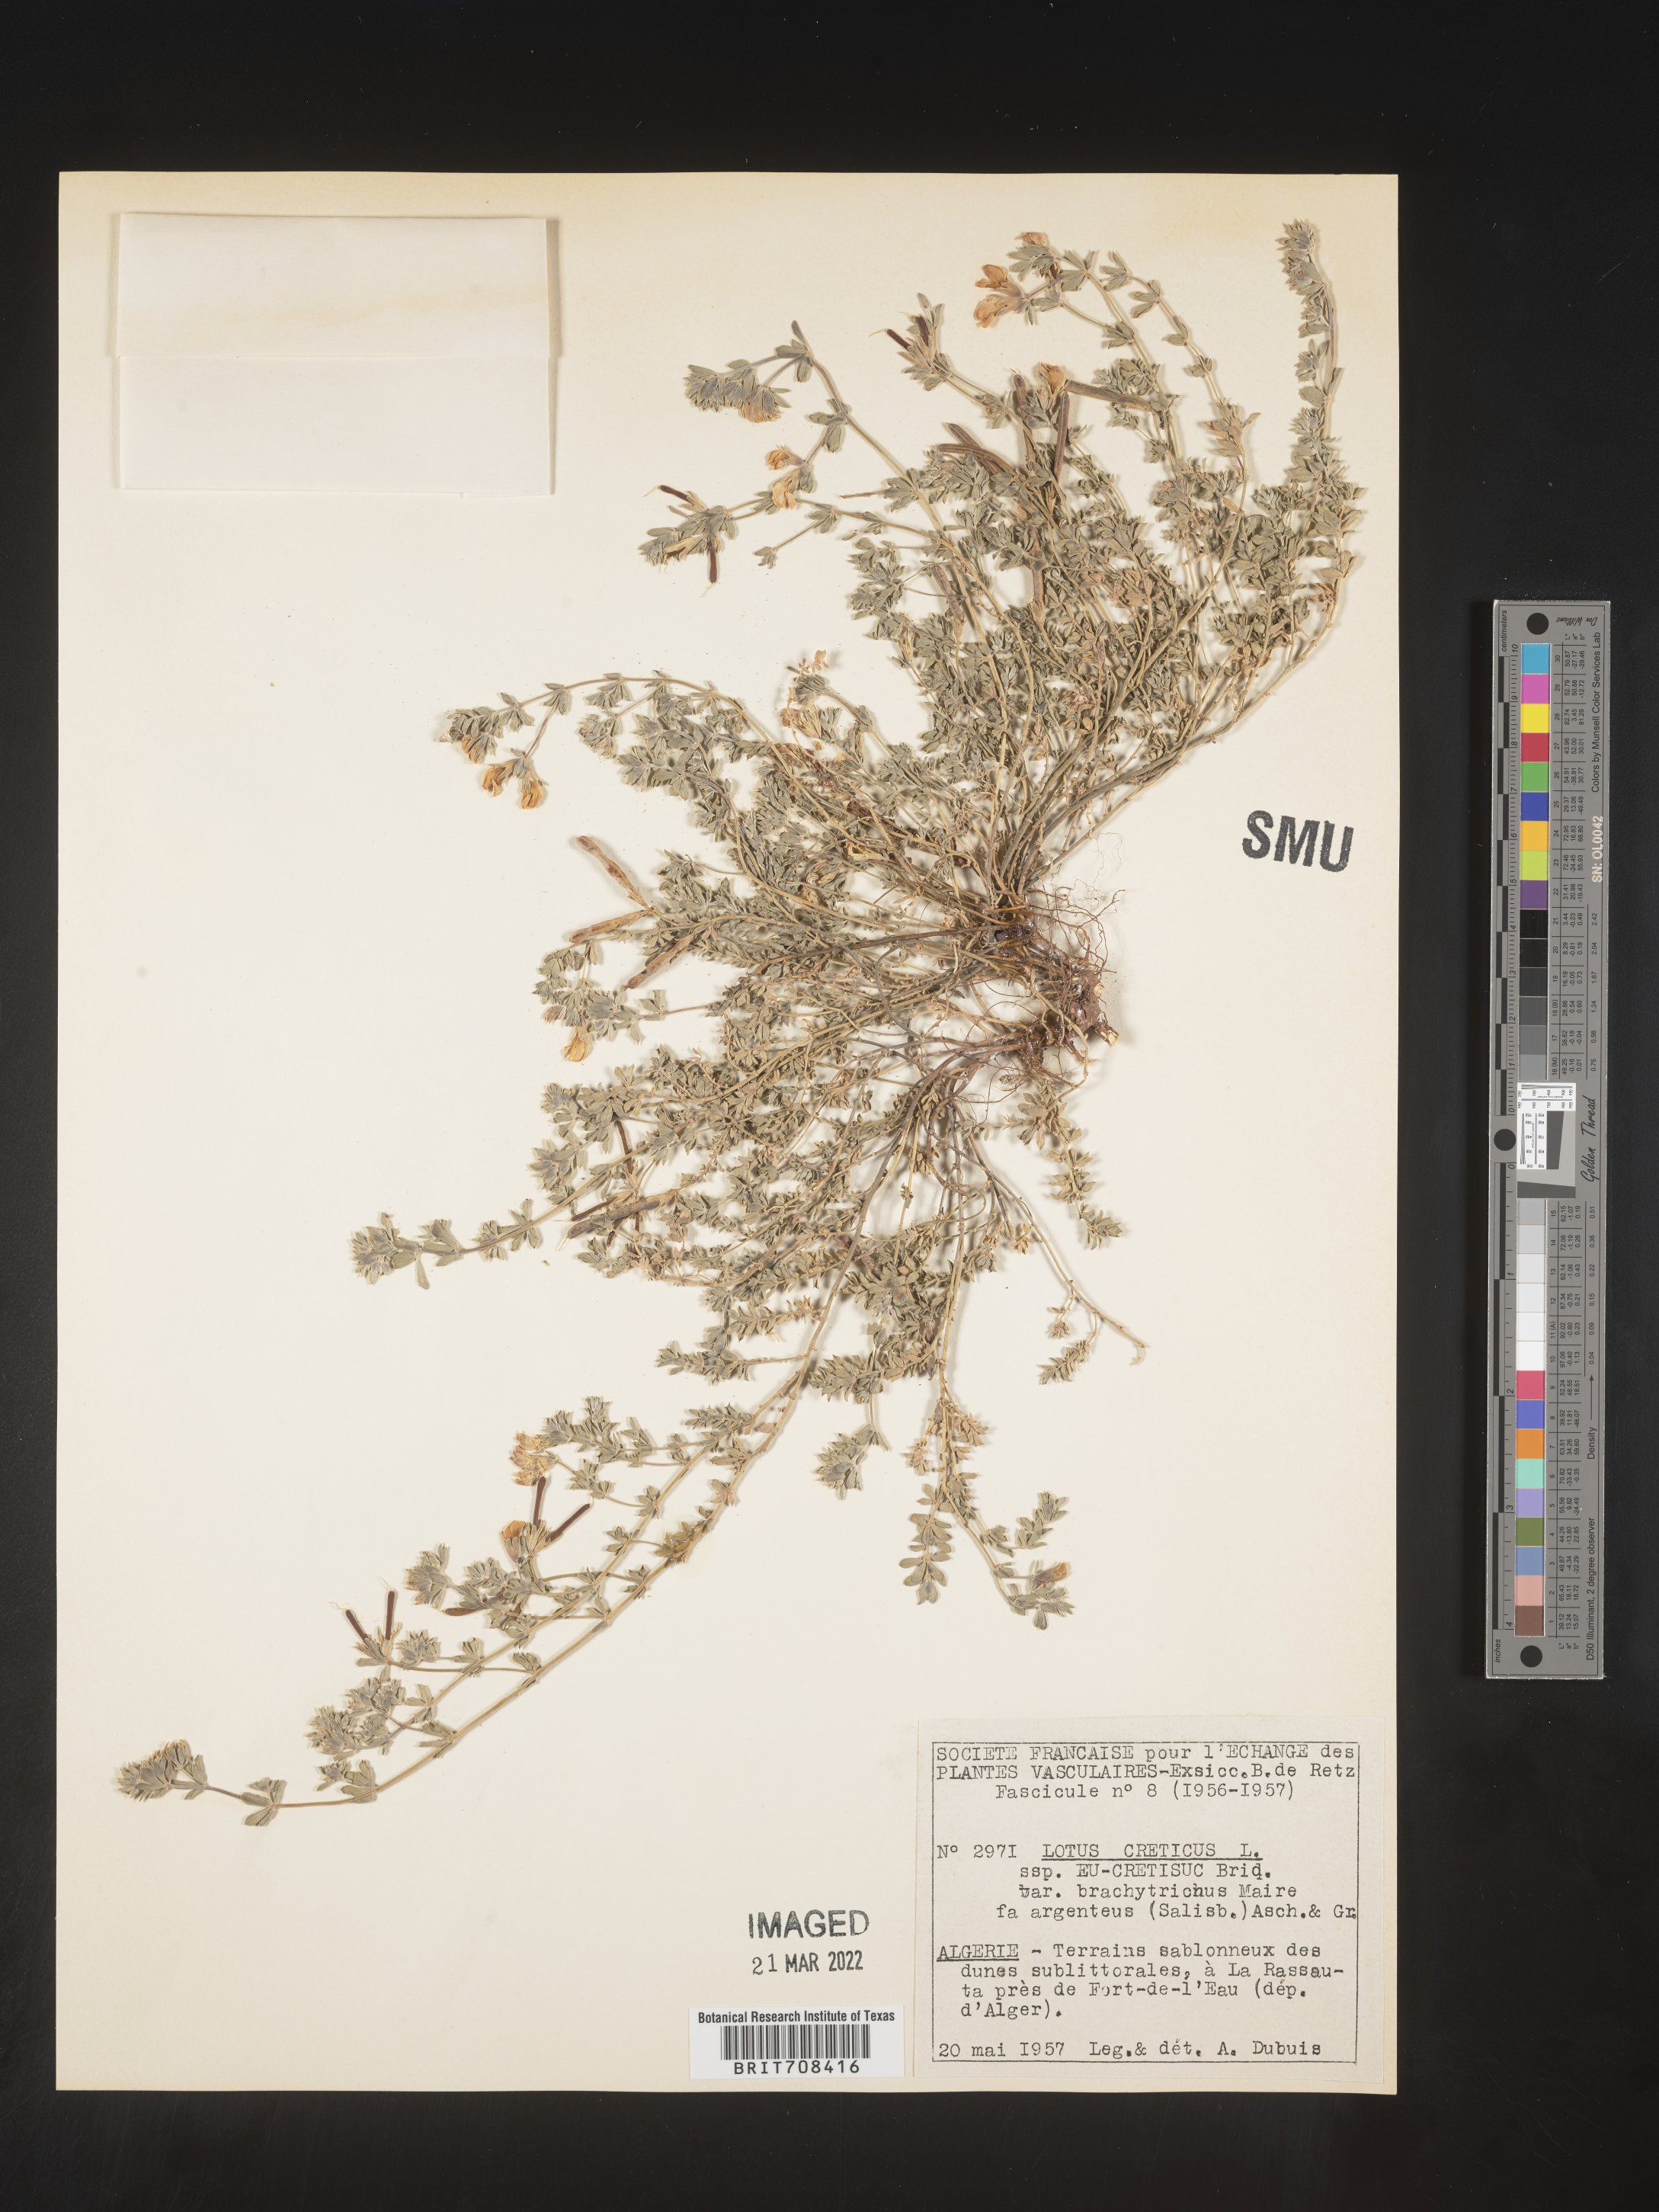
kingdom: Plantae
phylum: Tracheophyta
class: Magnoliopsida
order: Fabales
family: Fabaceae
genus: Lotus
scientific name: Lotus
